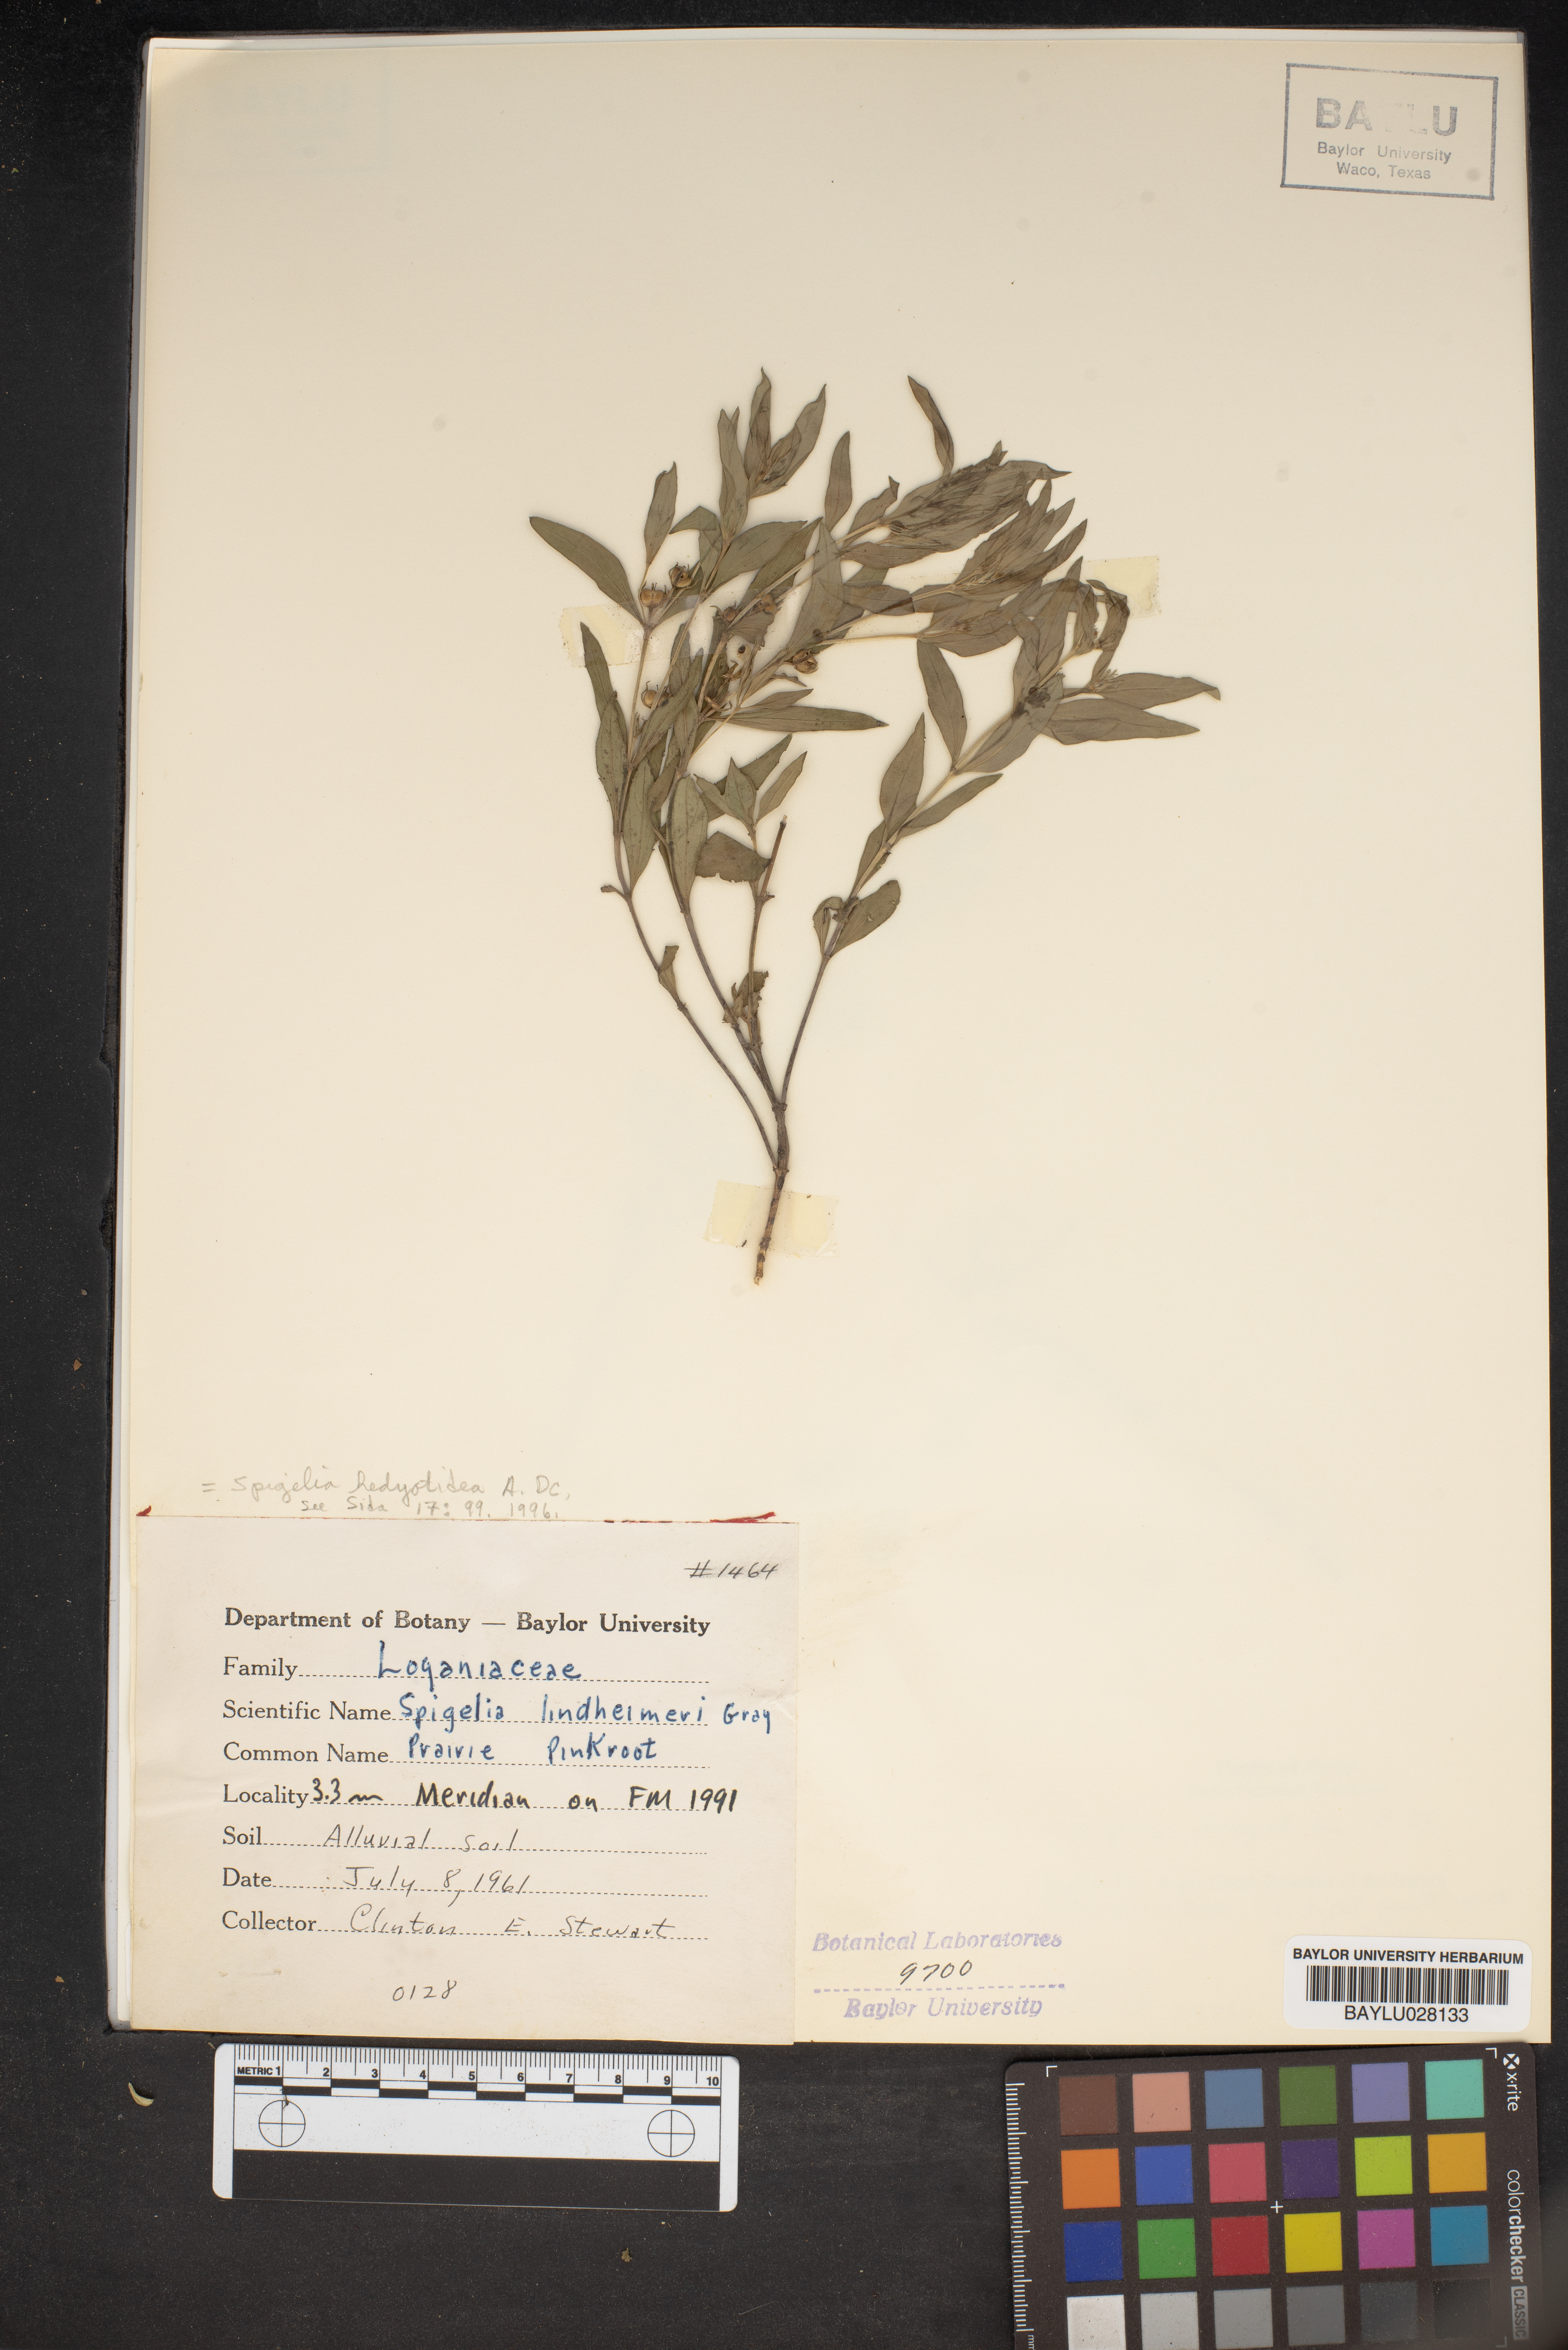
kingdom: Plantae
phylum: Tracheophyta
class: Magnoliopsida
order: Gentianales
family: Loganiaceae
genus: Spigelia
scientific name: Spigelia hedyotidea
